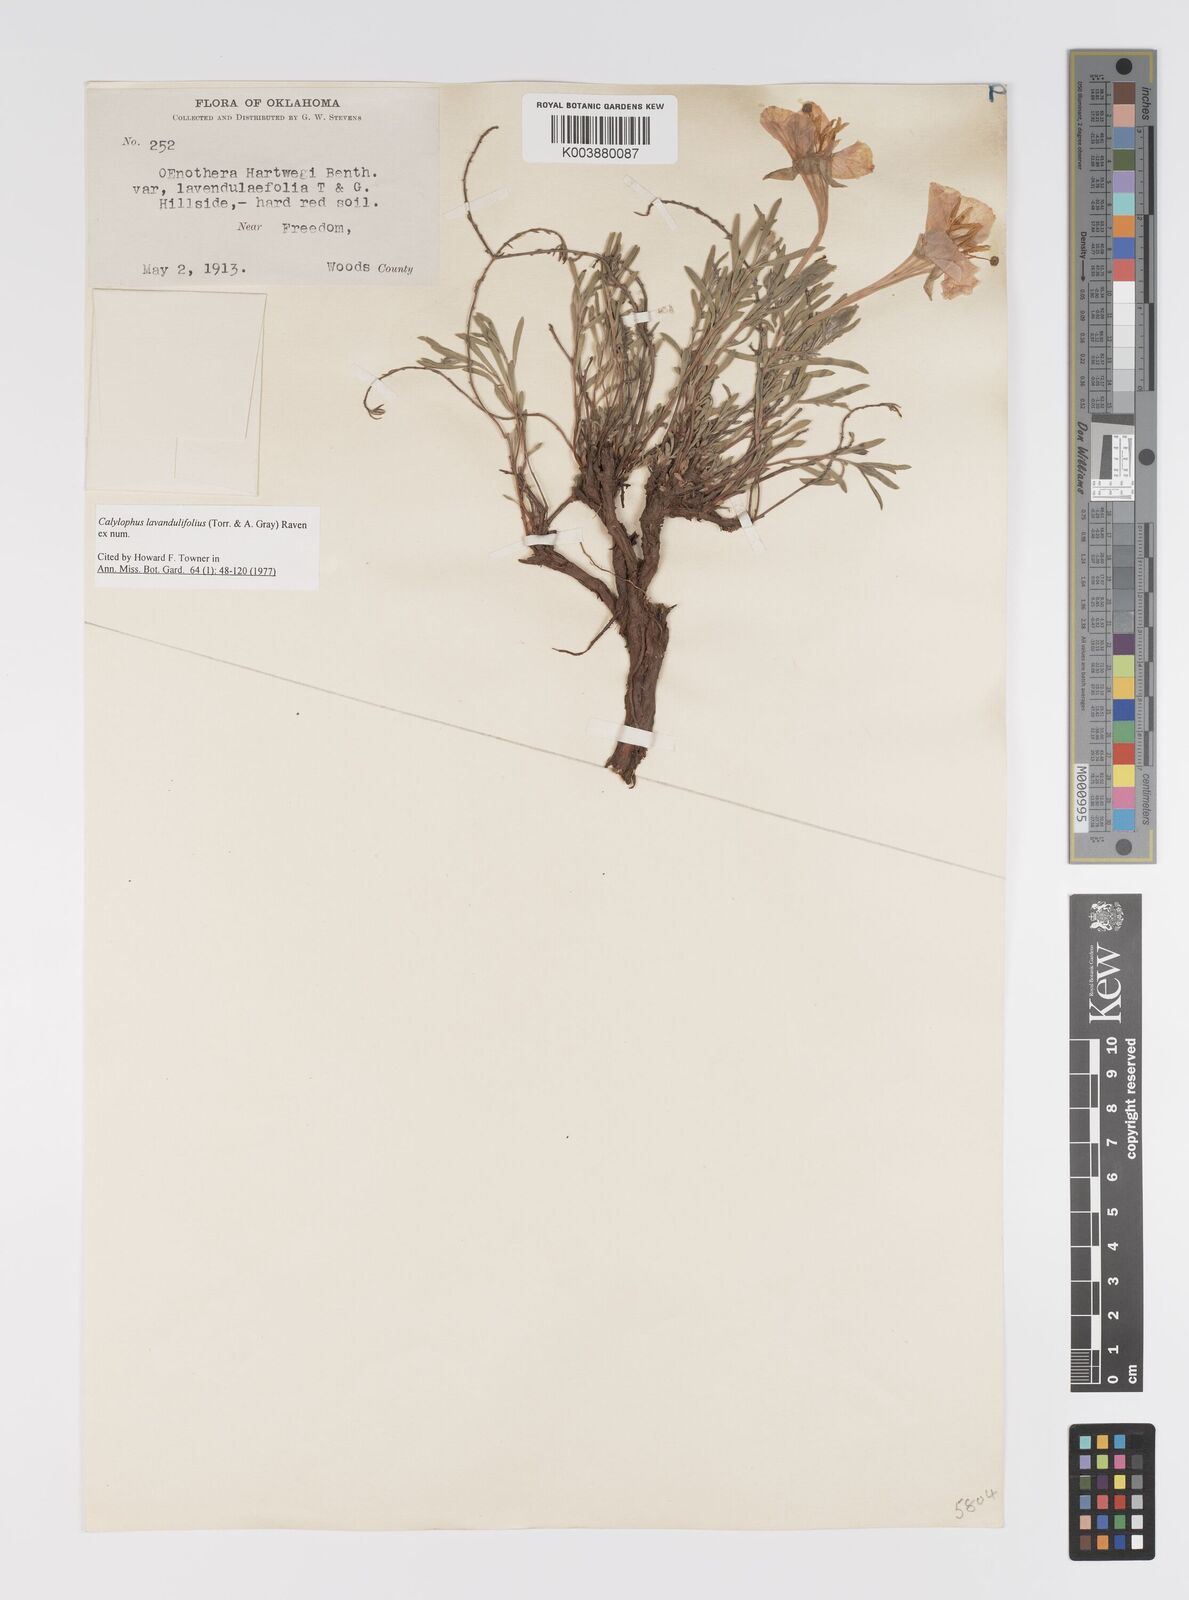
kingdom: Plantae
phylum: Tracheophyta
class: Magnoliopsida
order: Myrtales
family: Onagraceae
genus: Oenothera
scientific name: Oenothera lavandulifolia
